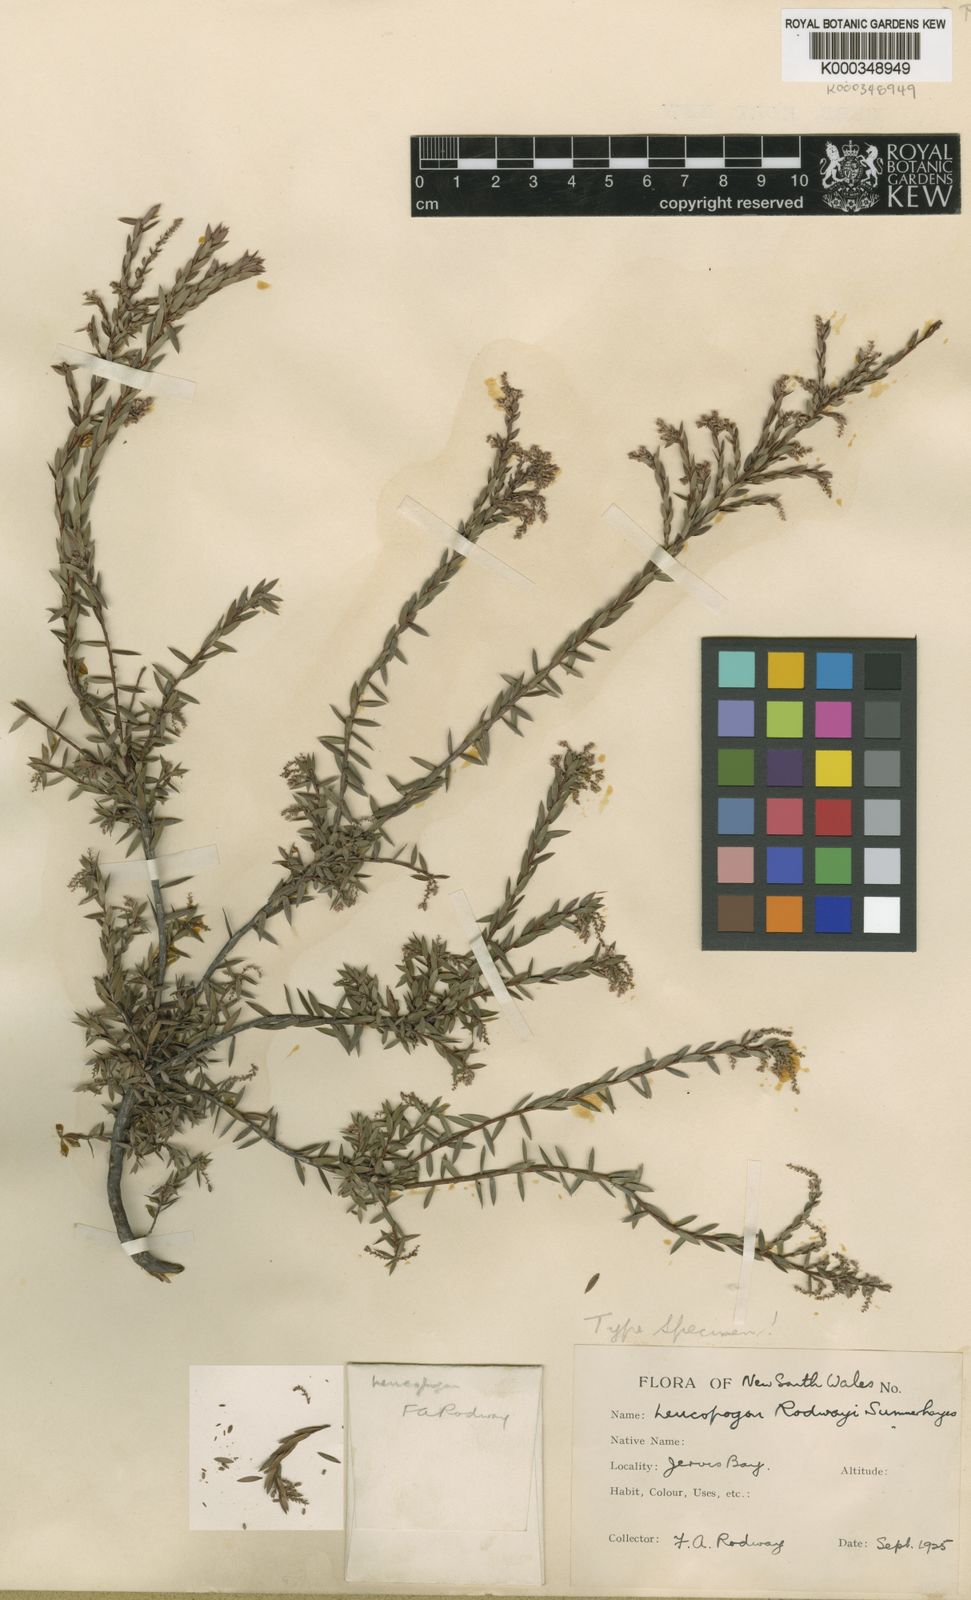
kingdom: Plantae
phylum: Tracheophyta
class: Magnoliopsida
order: Ericales
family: Ericaceae
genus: Leucopogon
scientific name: Leucopogon rodwayi
